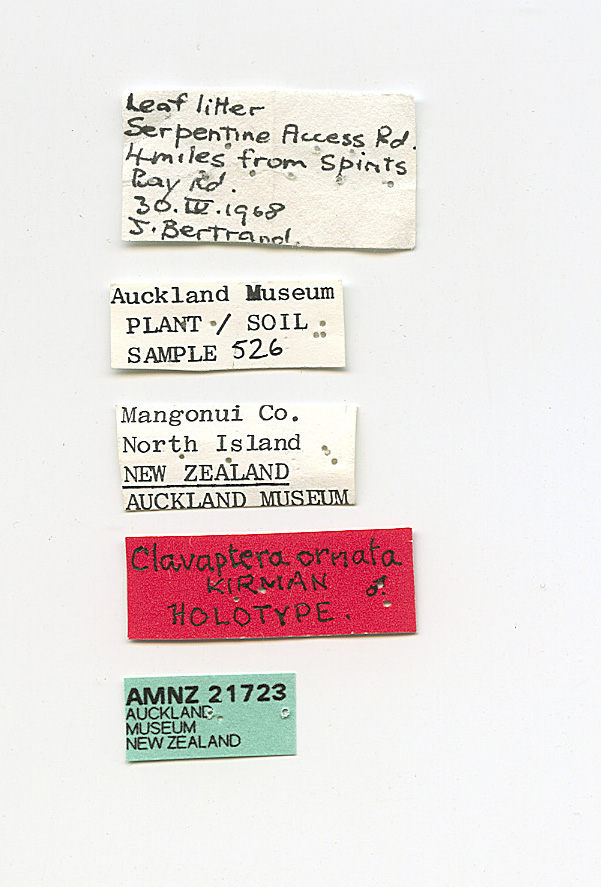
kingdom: Animalia
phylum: Arthropoda
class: Insecta
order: Hemiptera
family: Aradidae
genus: Clavaptera
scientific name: Clavaptera ornata
